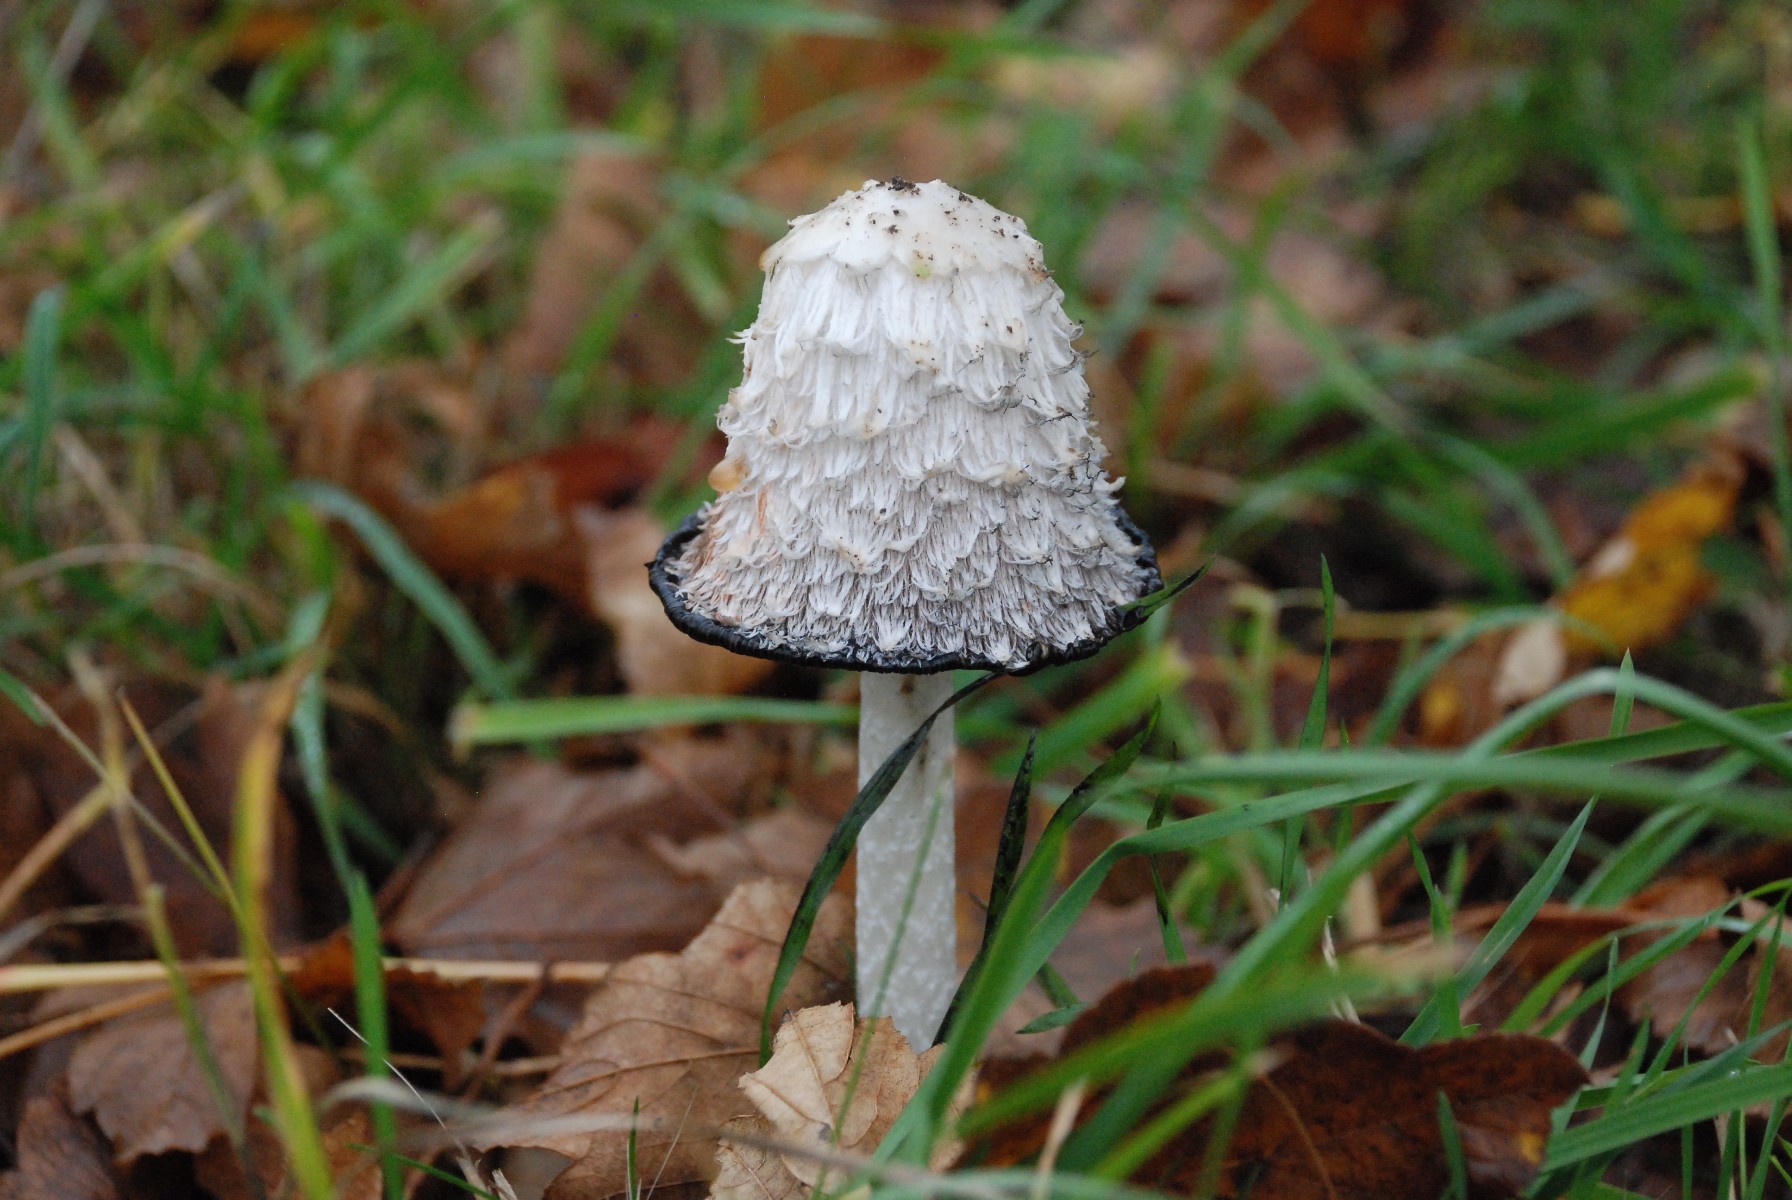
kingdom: Fungi
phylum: Basidiomycota
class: Agaricomycetes
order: Agaricales
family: Agaricaceae
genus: Coprinus
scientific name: Coprinus comatus
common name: stor parykhat
